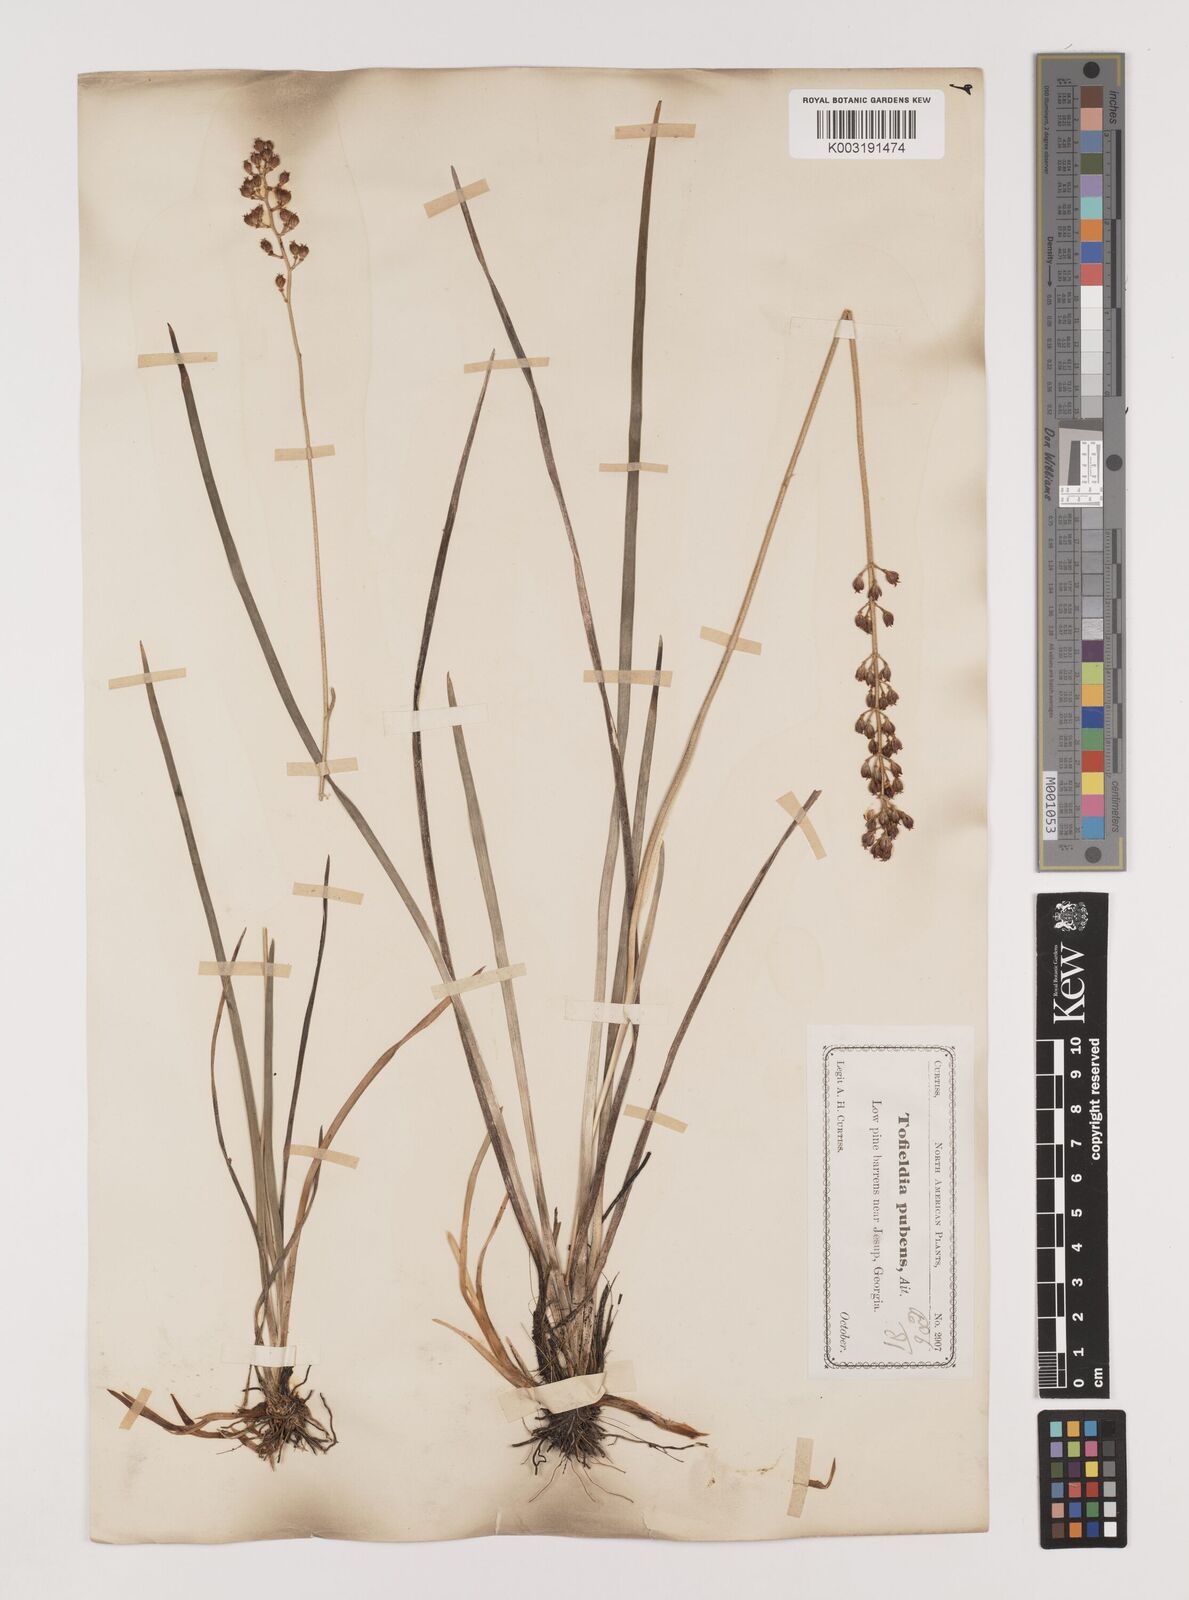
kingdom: Plantae
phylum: Tracheophyta
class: Liliopsida
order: Alismatales
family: Tofieldiaceae
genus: Triantha
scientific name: Triantha racemosa
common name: Coastal false asphodel
